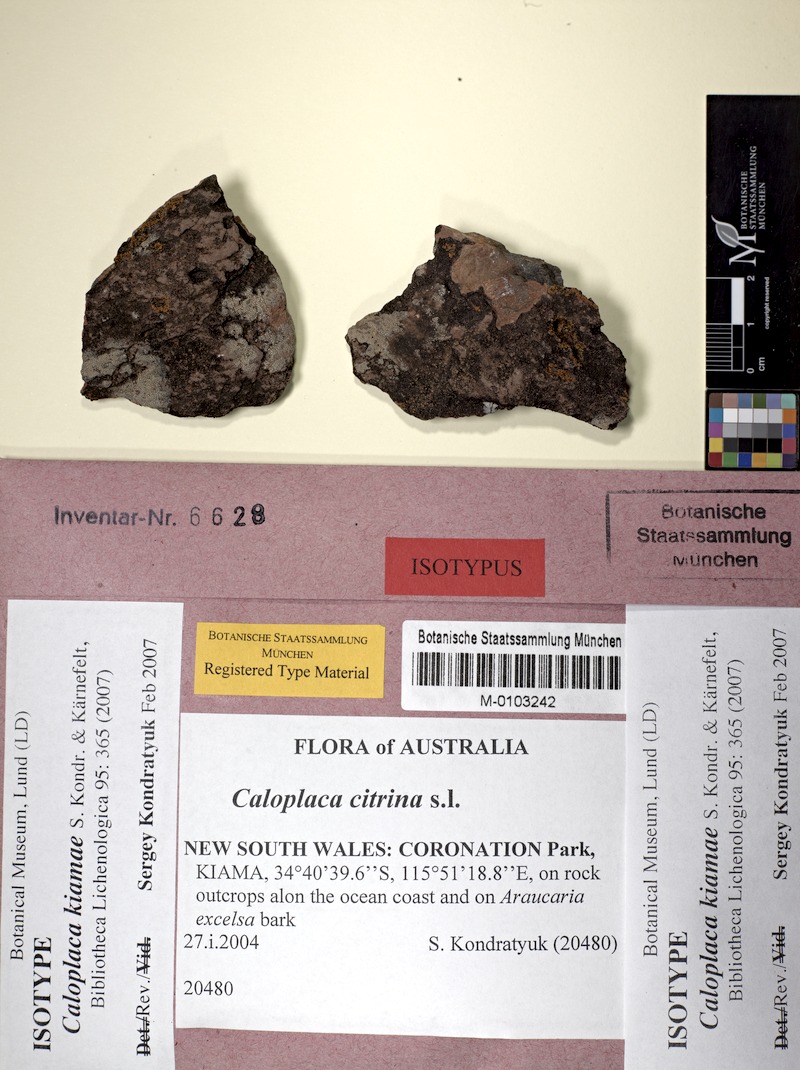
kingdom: Fungi
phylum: Ascomycota
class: Lecanoromycetes
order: Teloschistales
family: Teloschistaceae
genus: Filsoniana
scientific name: Filsoniana kiamae
